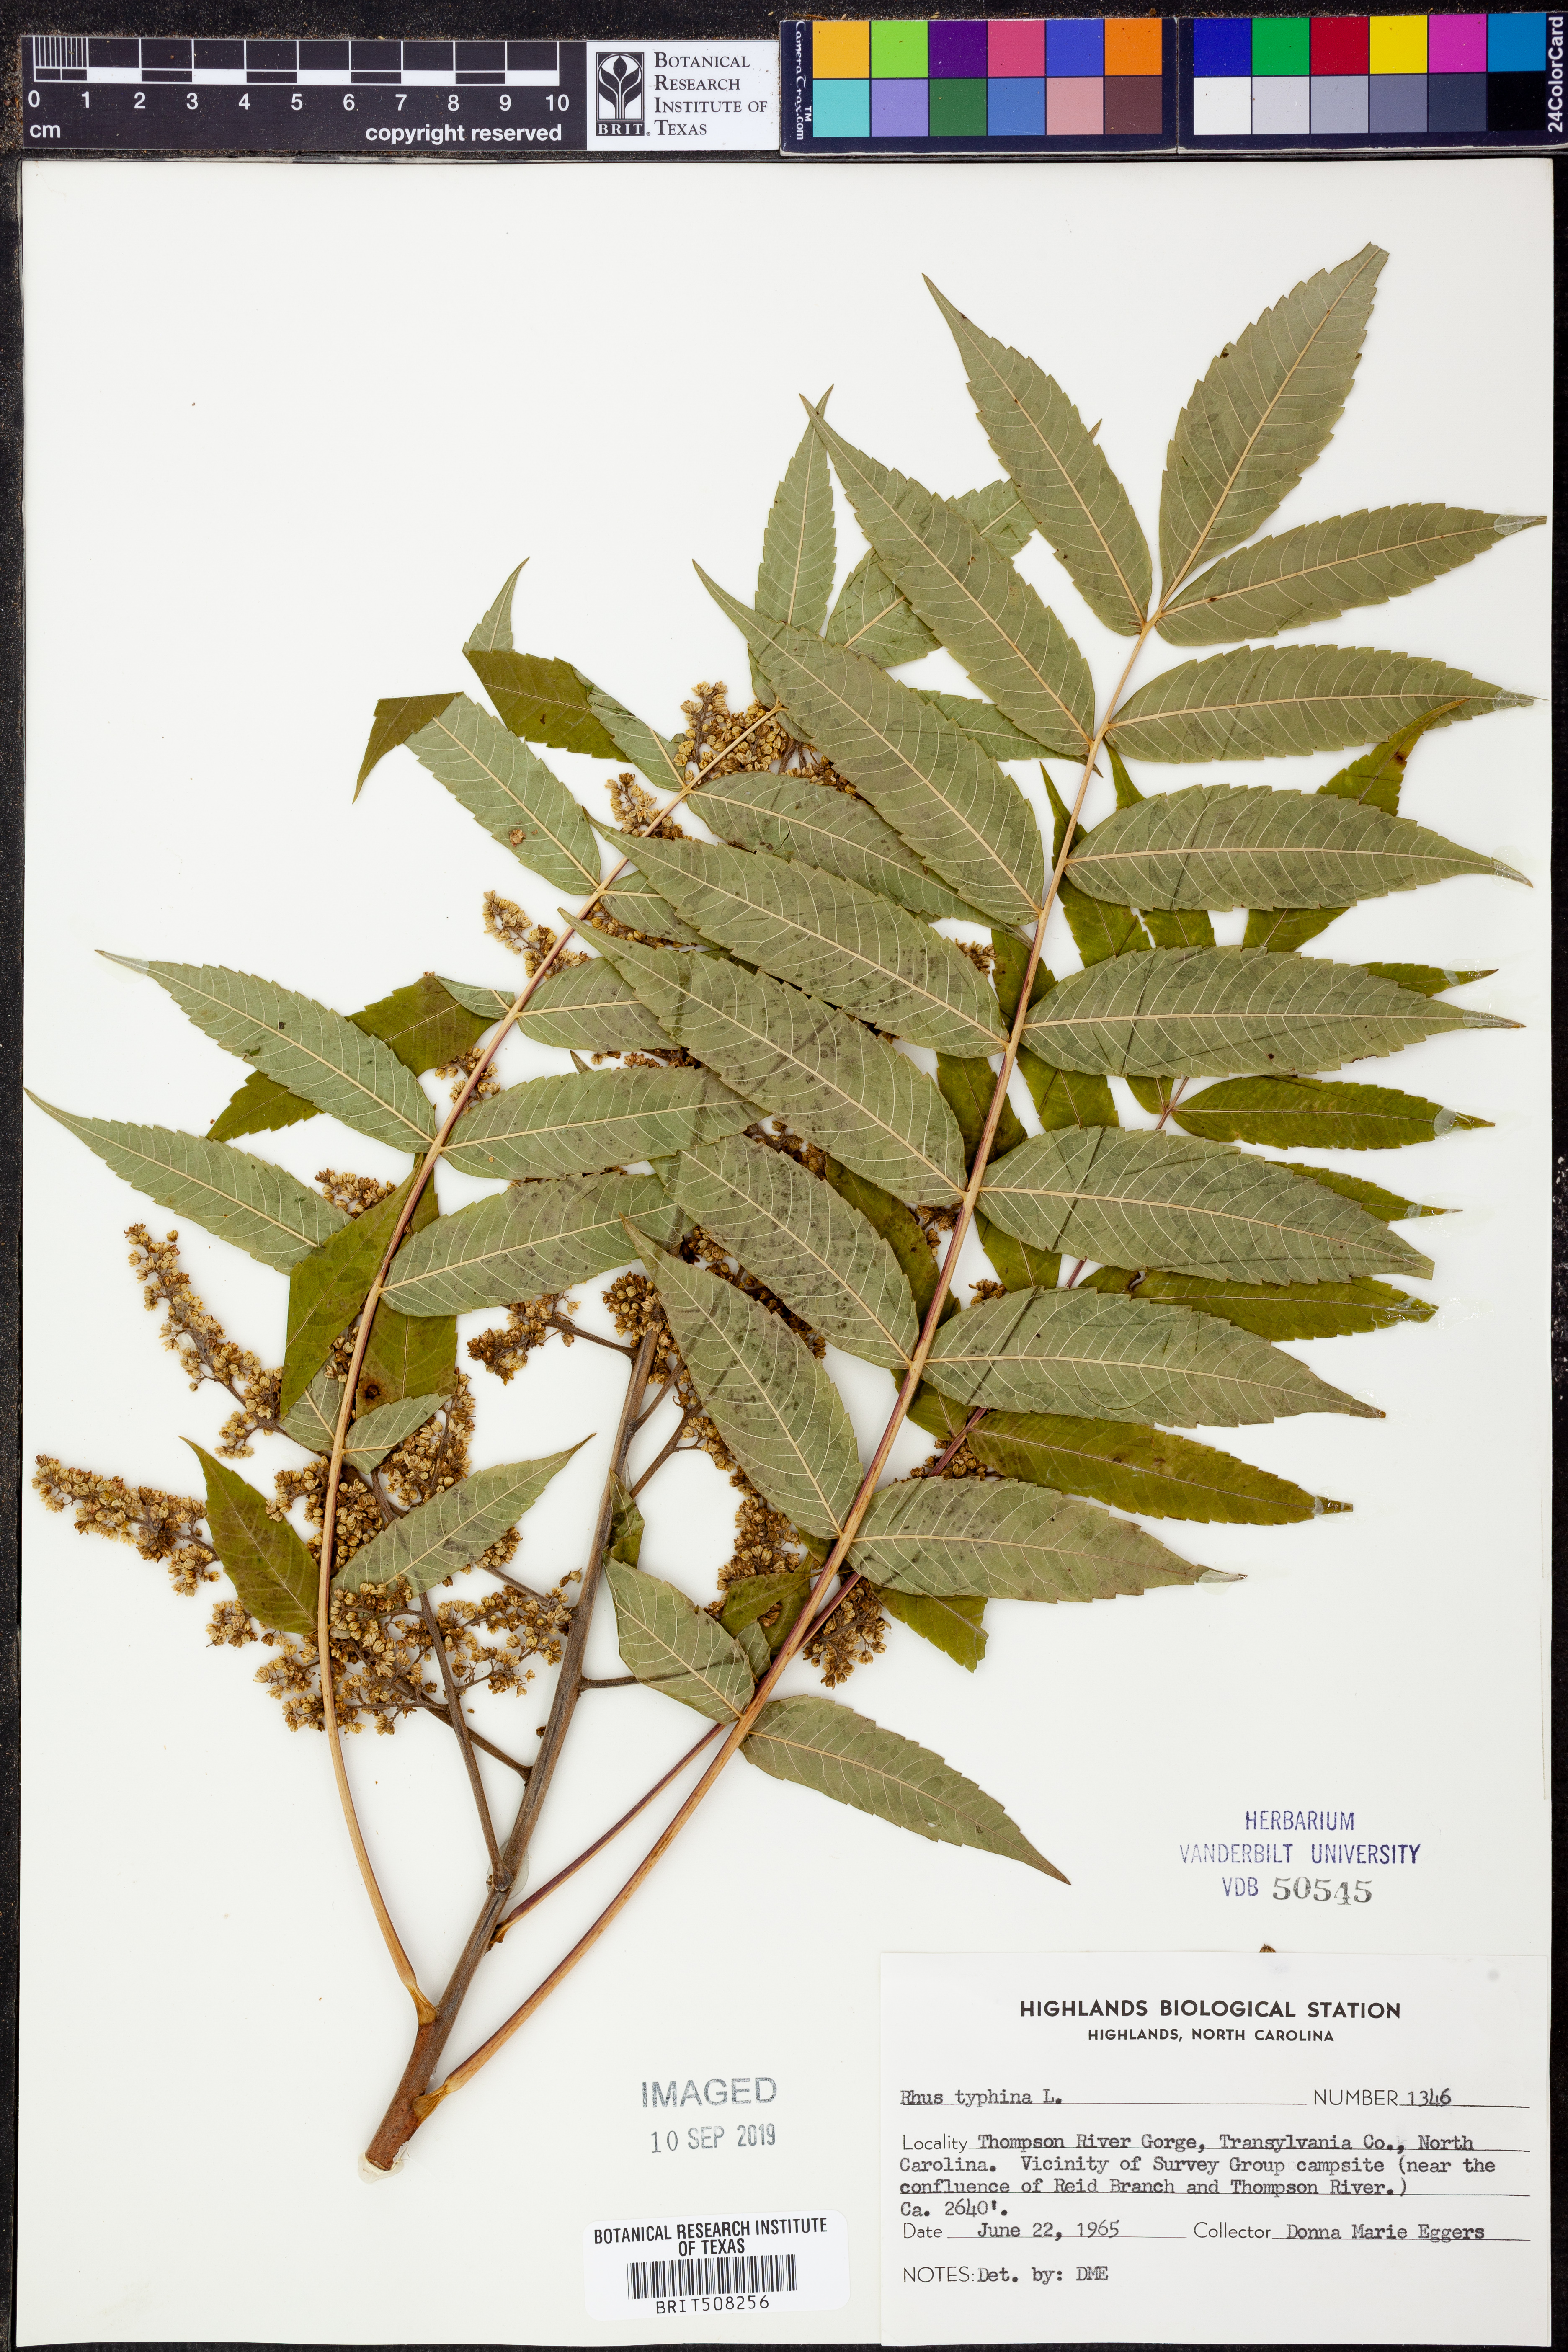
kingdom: Plantae
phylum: Tracheophyta
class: Magnoliopsida
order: Sapindales
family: Anacardiaceae
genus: Rhus
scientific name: Rhus typhina
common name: Staghorn sumac
